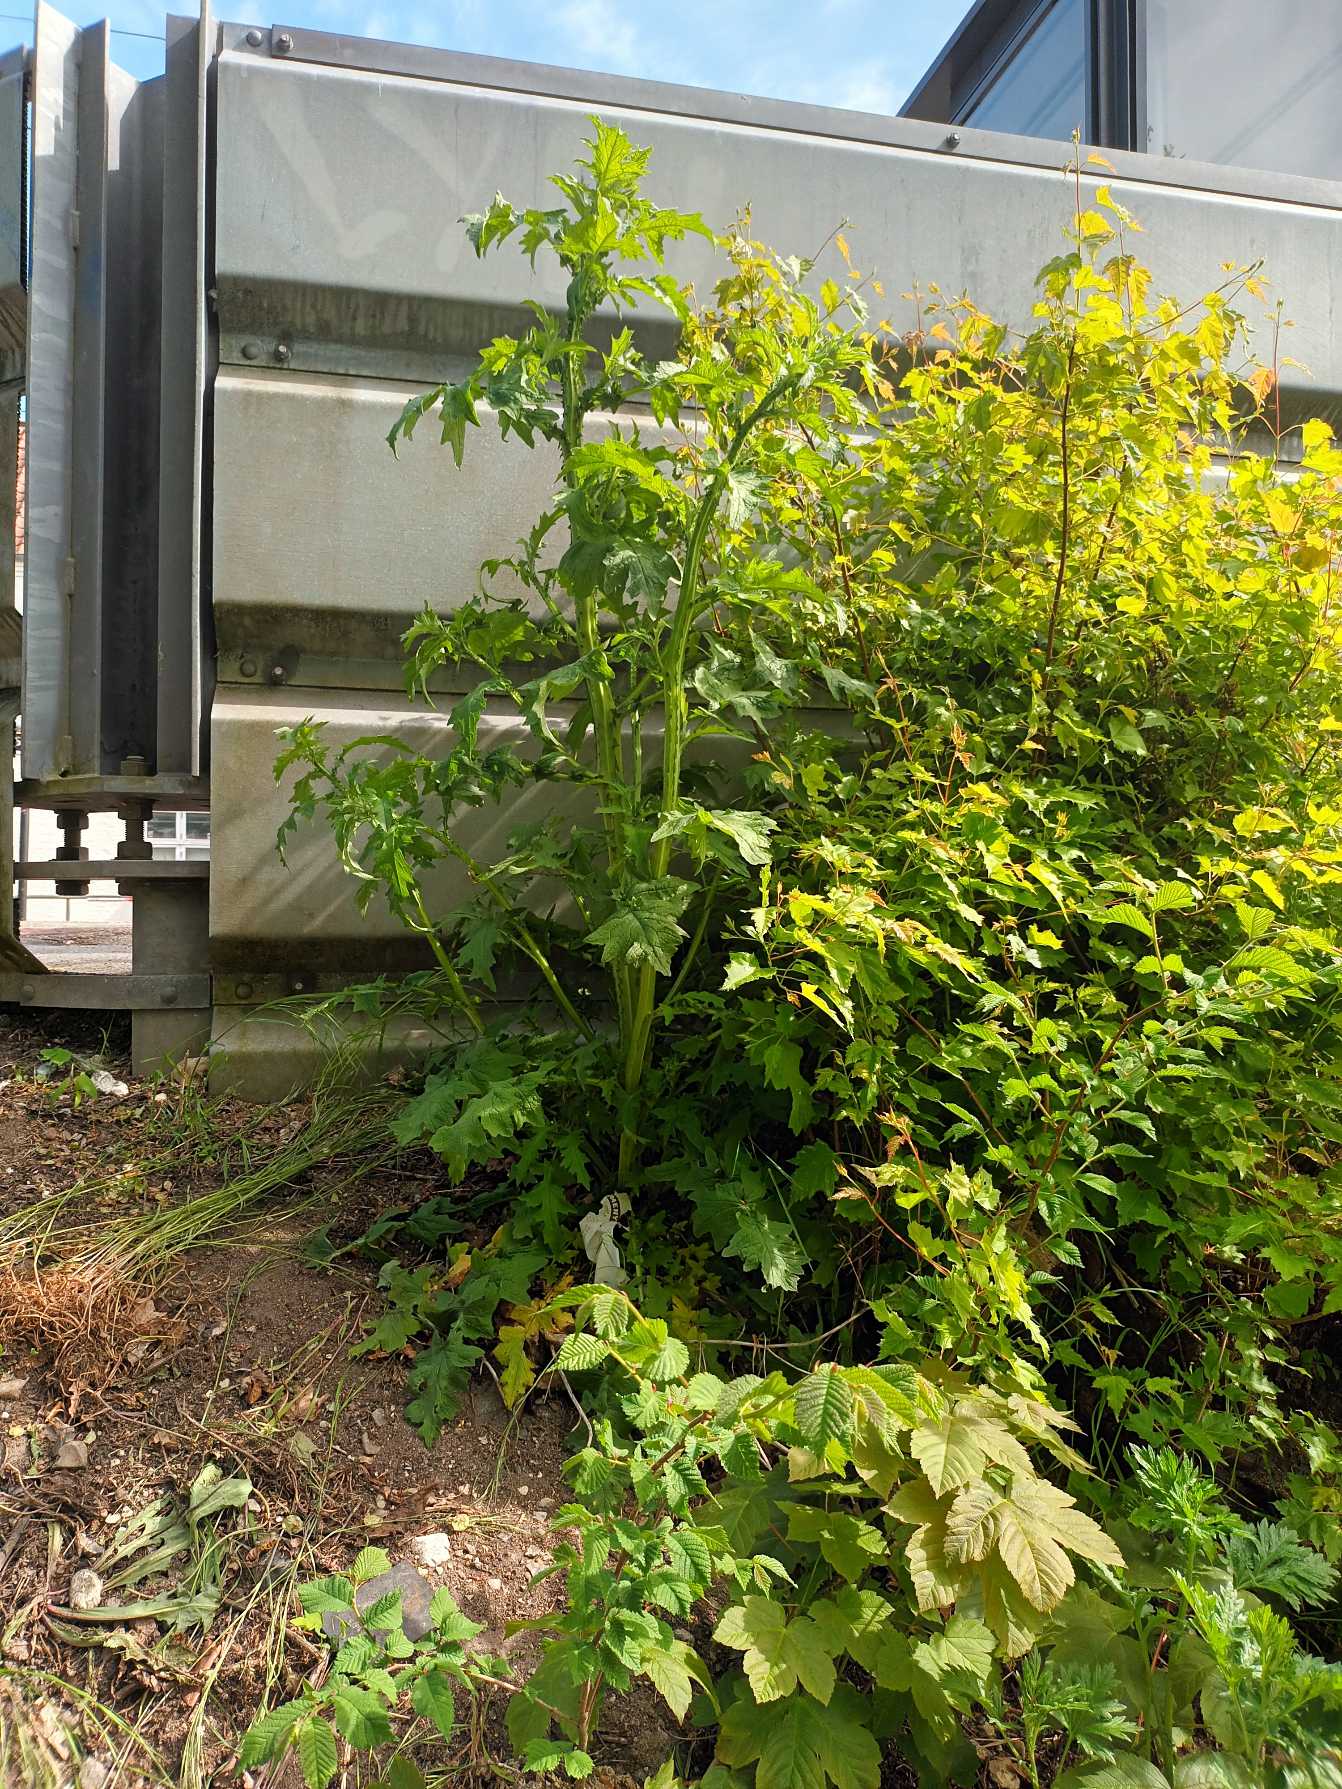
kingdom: Plantae
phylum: Tracheophyta
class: Magnoliopsida
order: Asterales
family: Asteraceae
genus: Carduus
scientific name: Carduus crispus
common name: Kruset tidsel
